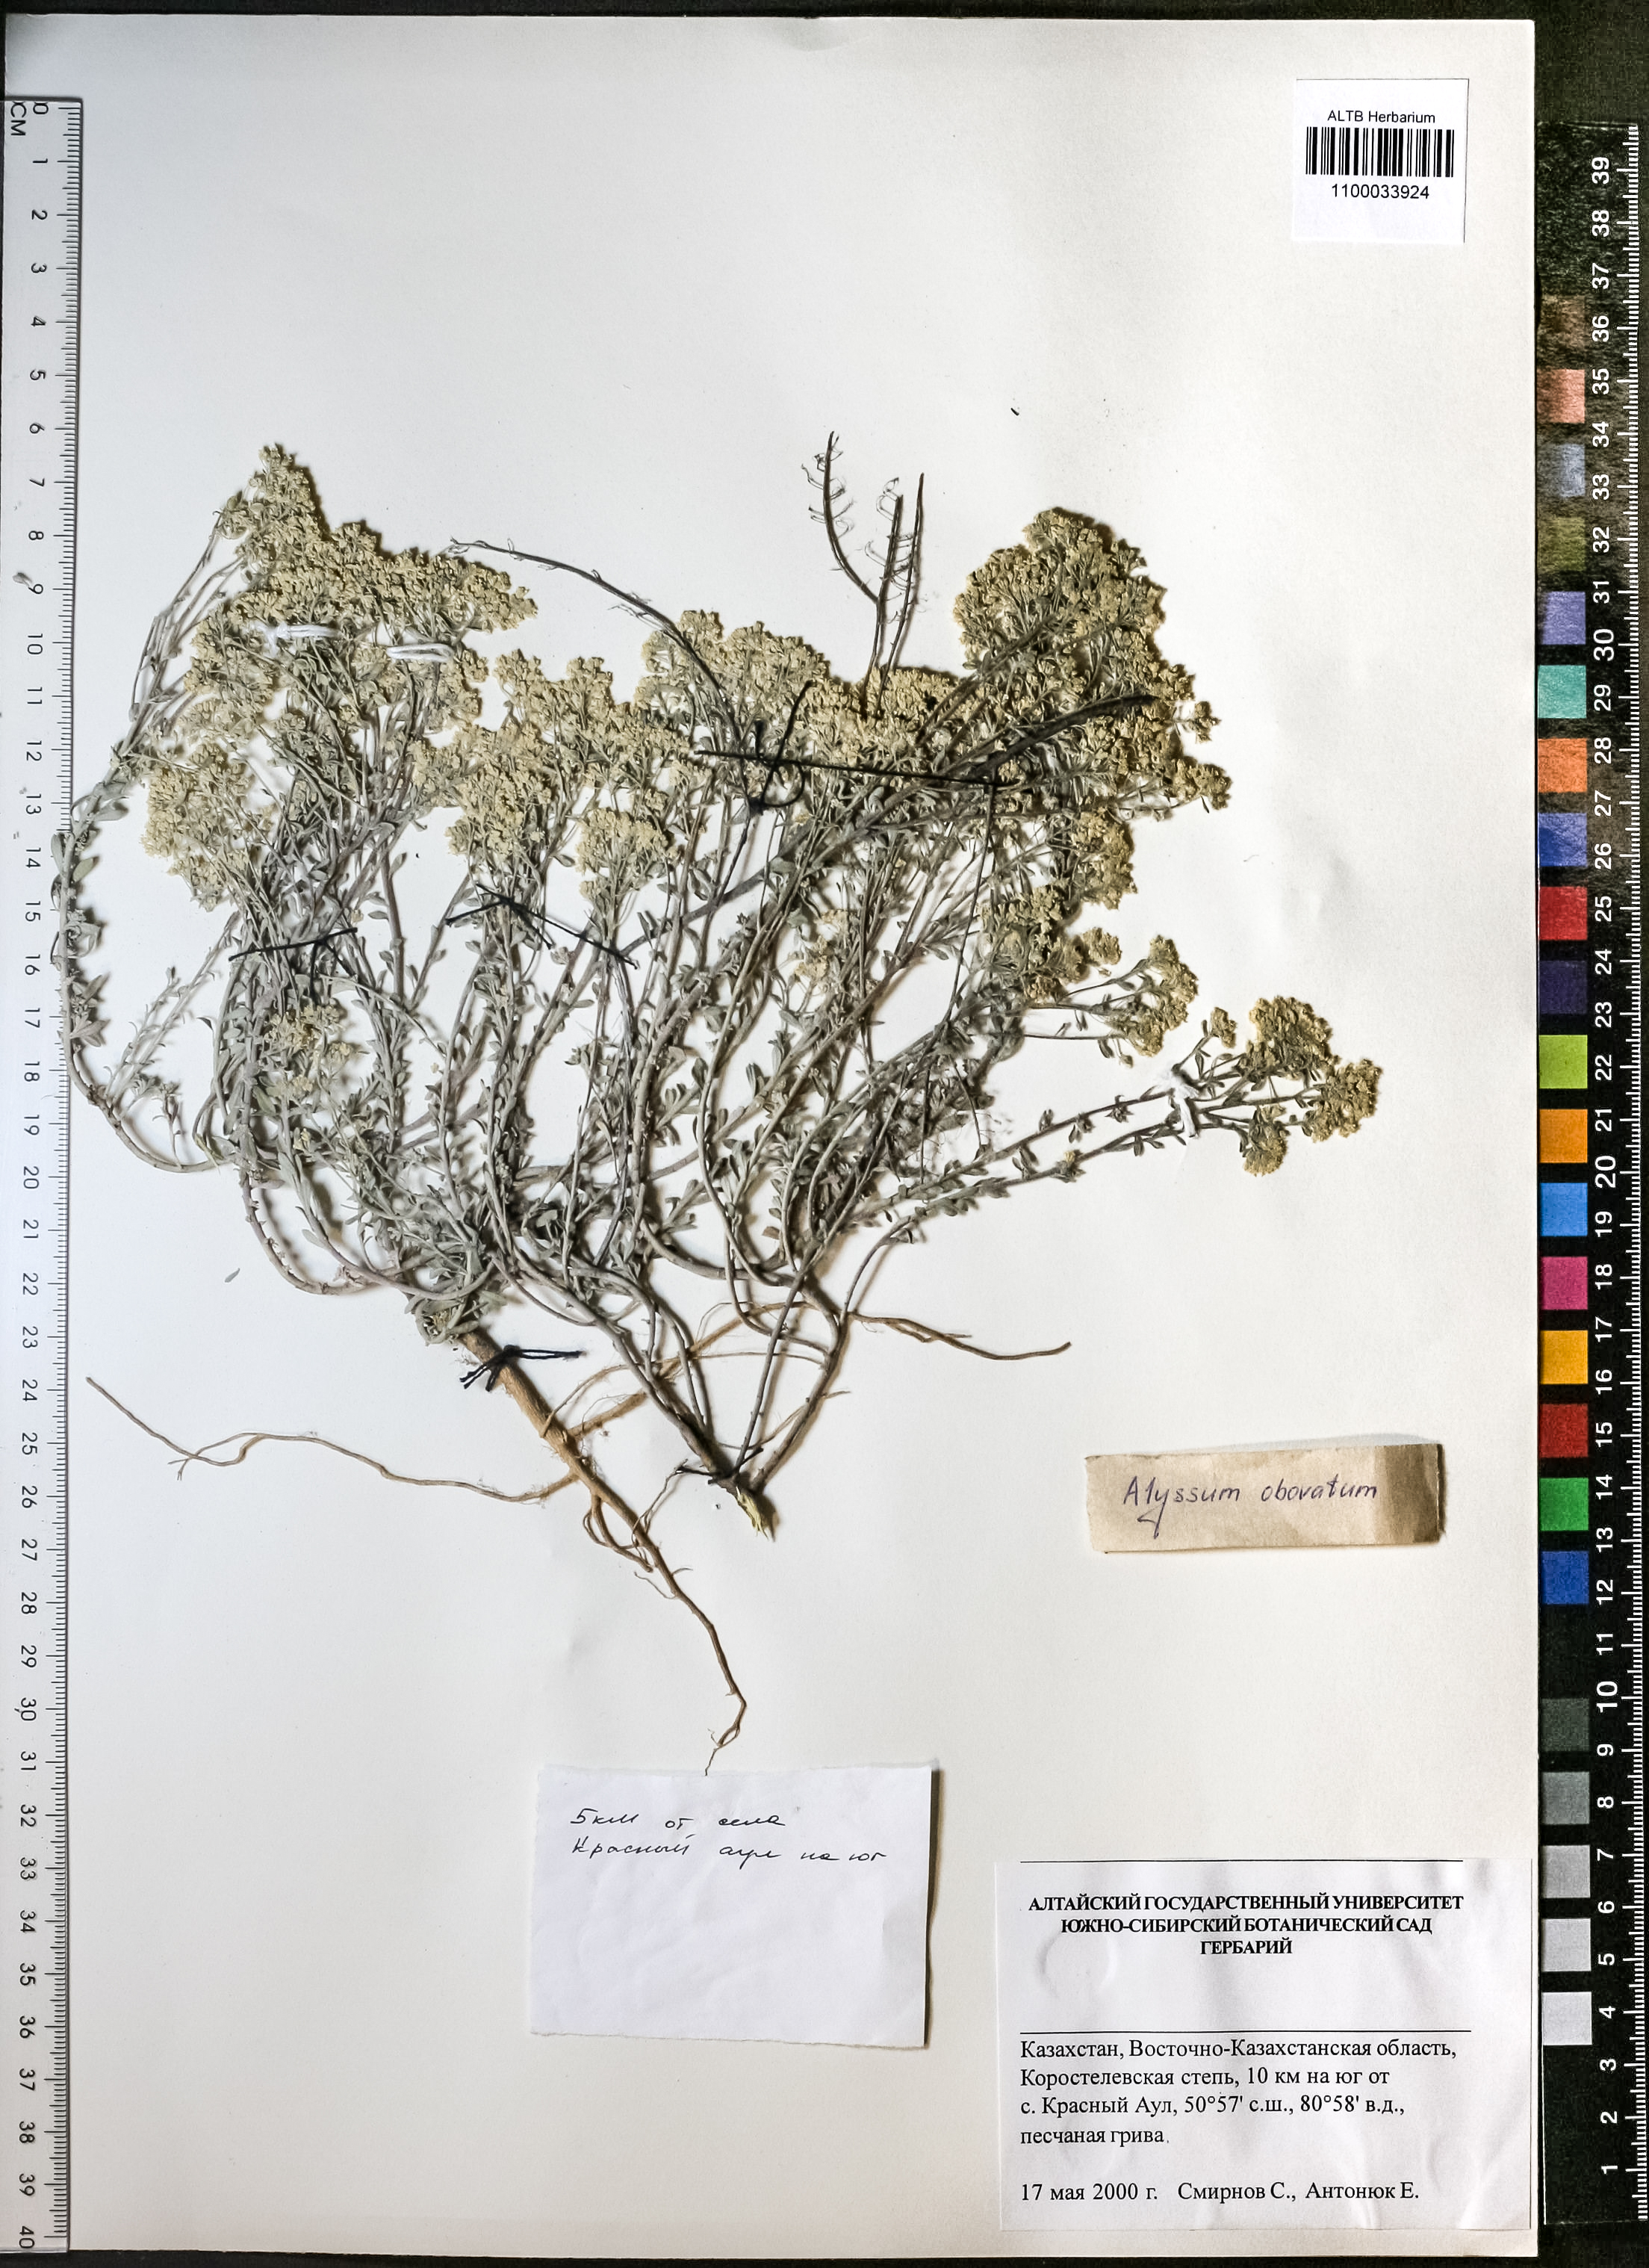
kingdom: Plantae
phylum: Tracheophyta
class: Magnoliopsida
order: Brassicales
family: Brassicaceae
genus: Odontarrhena
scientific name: Odontarrhena obovata
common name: American alyssum
